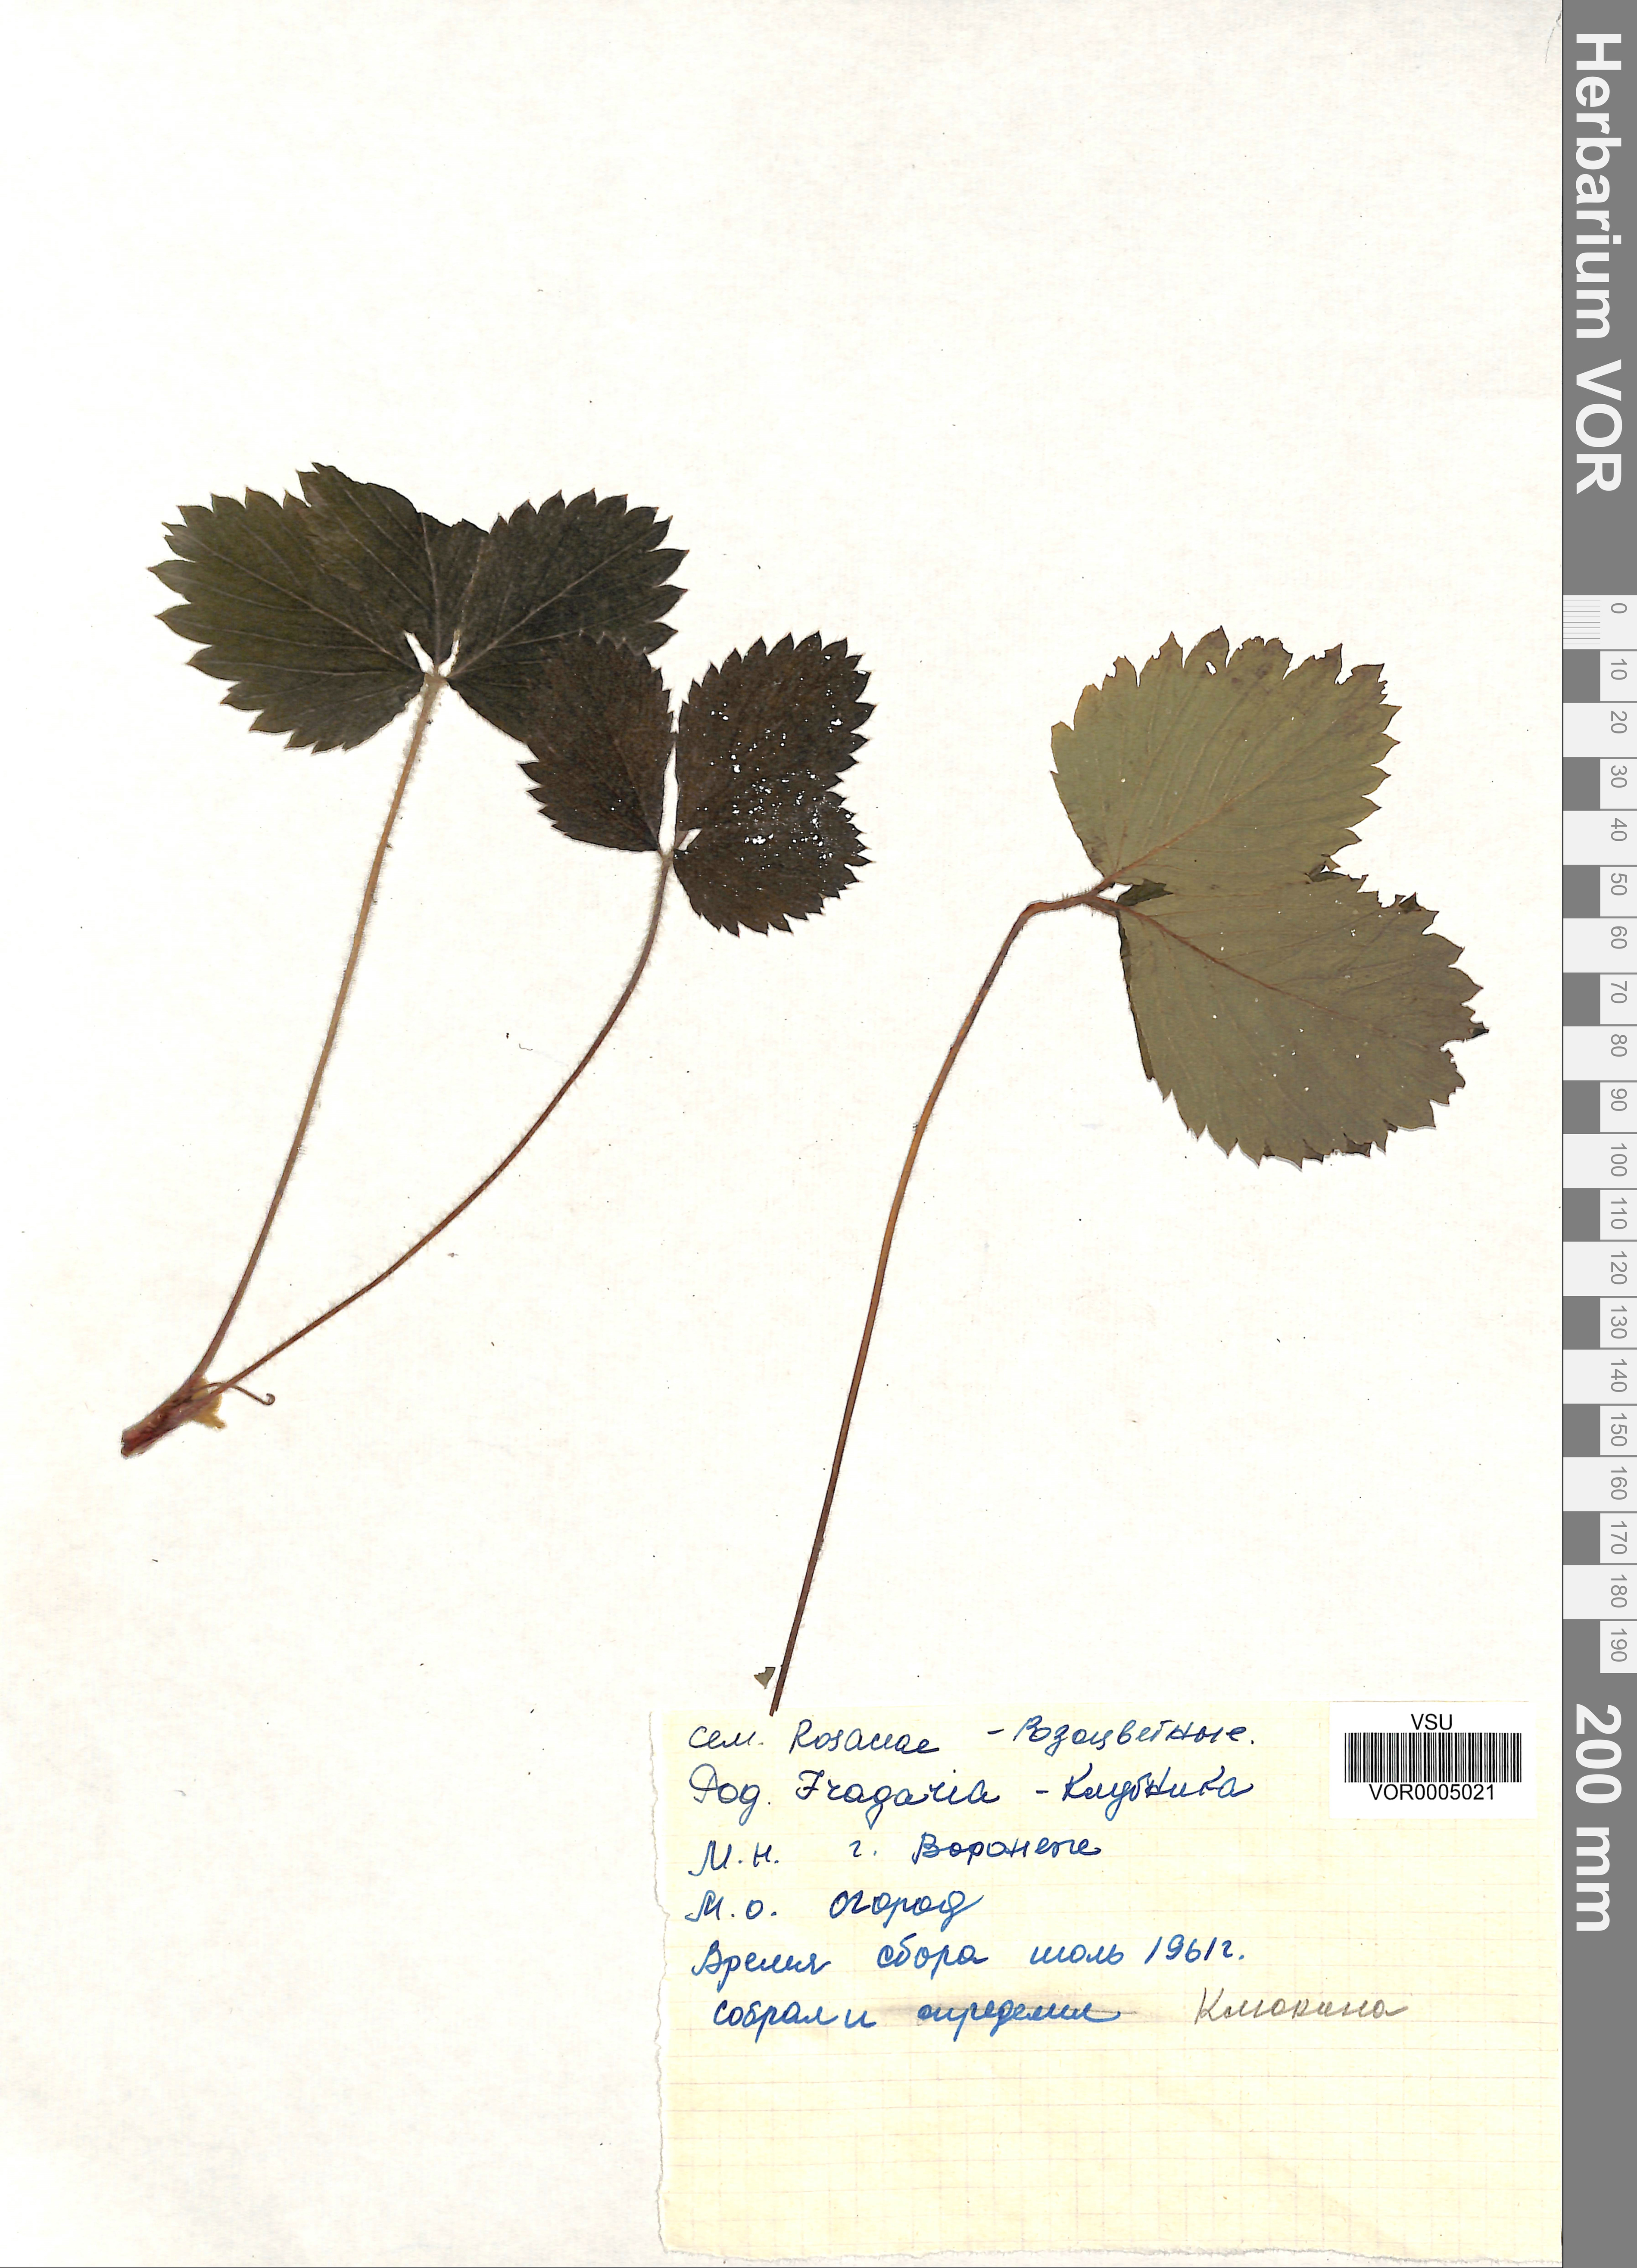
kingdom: Plantae
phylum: Tracheophyta
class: Magnoliopsida
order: Rosales
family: Rosaceae
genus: Fragaria
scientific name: Fragaria vesca
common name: Wild strawberry
